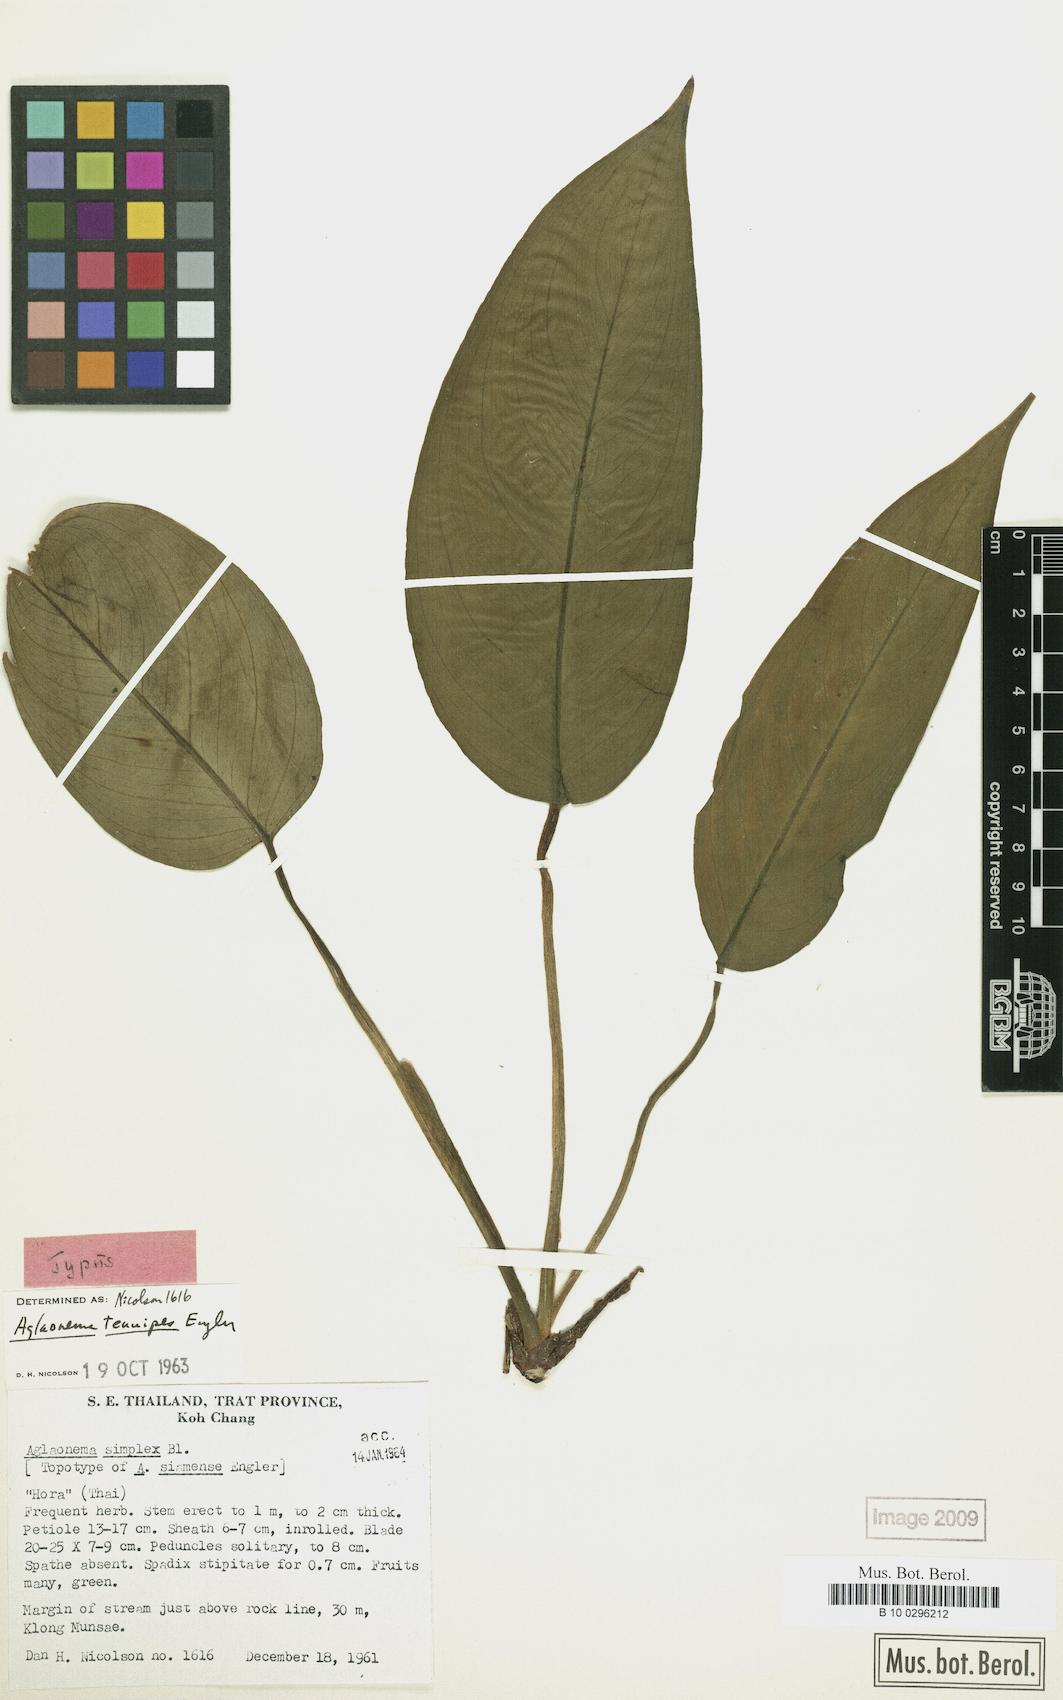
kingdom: Plantae
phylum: Tracheophyta
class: Liliopsida
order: Alismatales
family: Araceae
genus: Aglaonema
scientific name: Aglaonema simplex
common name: Malayan-sword
